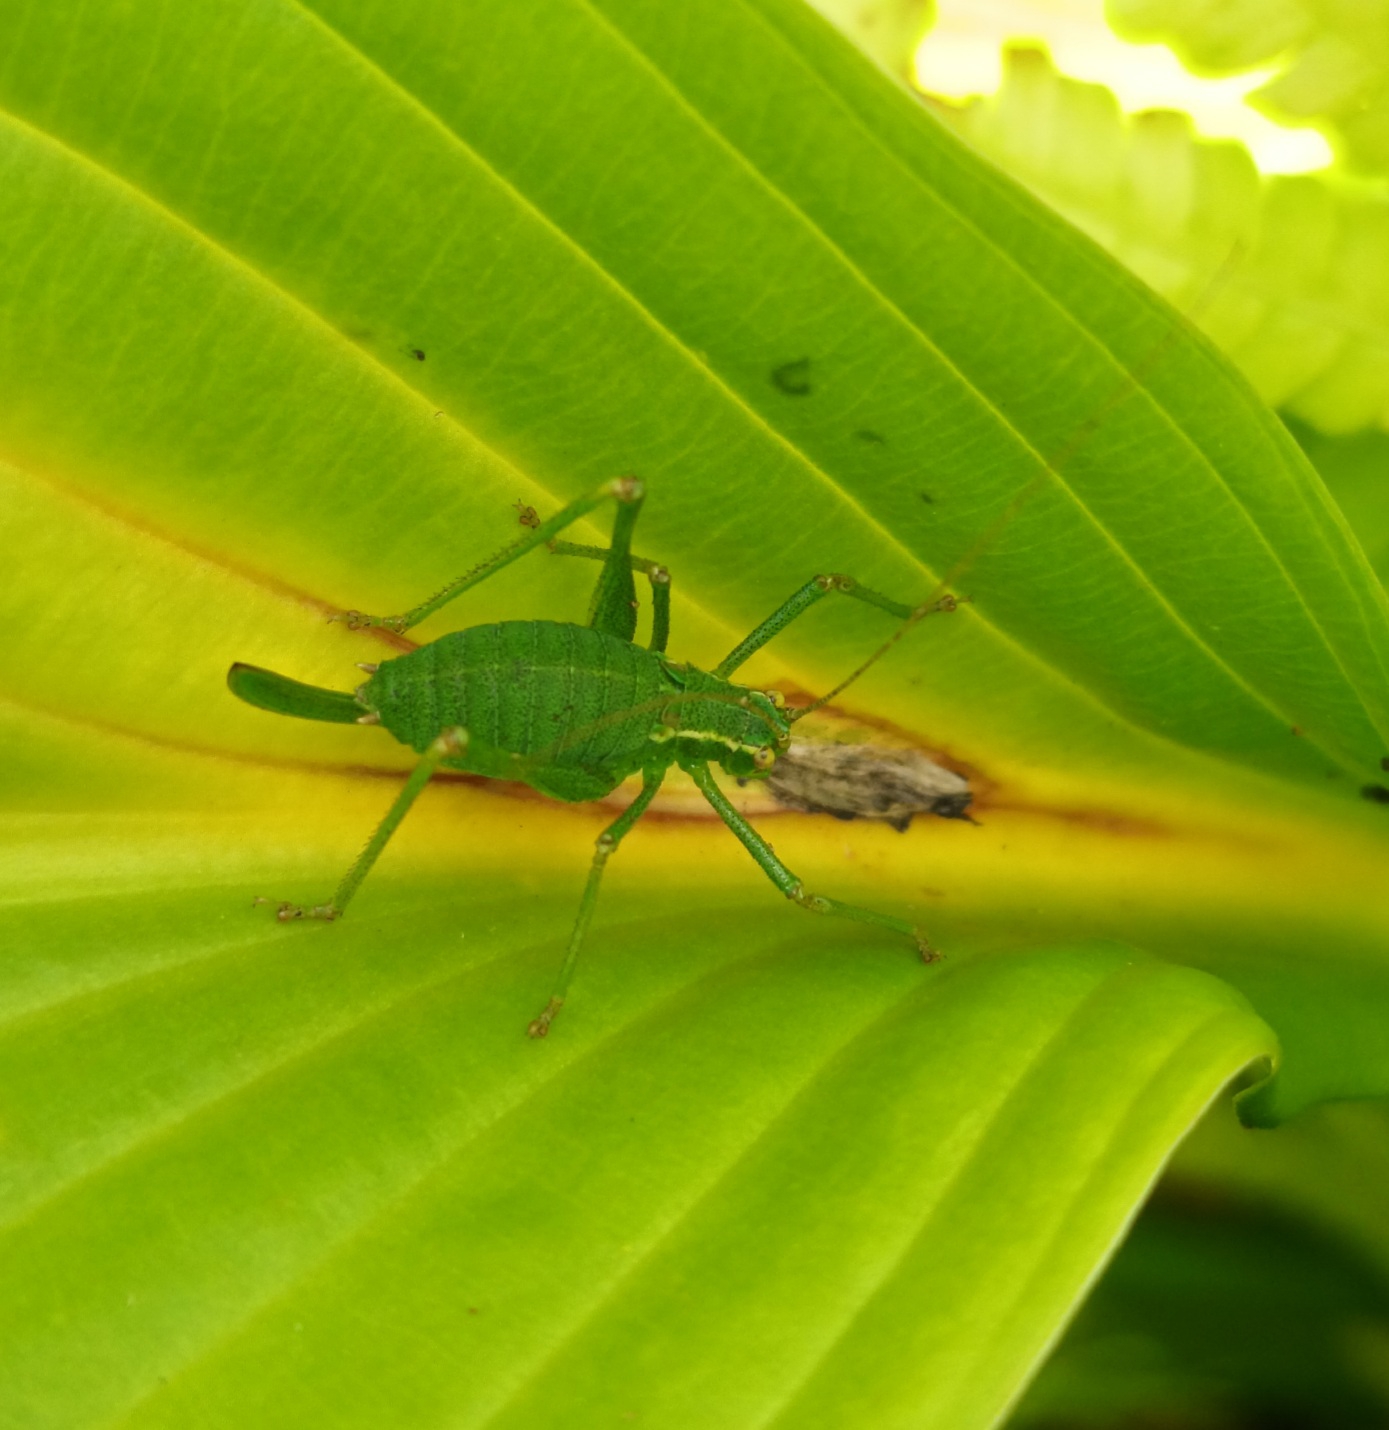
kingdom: Animalia
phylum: Arthropoda
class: Insecta
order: Orthoptera
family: Tettigoniidae
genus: Leptophyes
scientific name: Leptophyes punctatissima
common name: Krumknivgræshoppe
